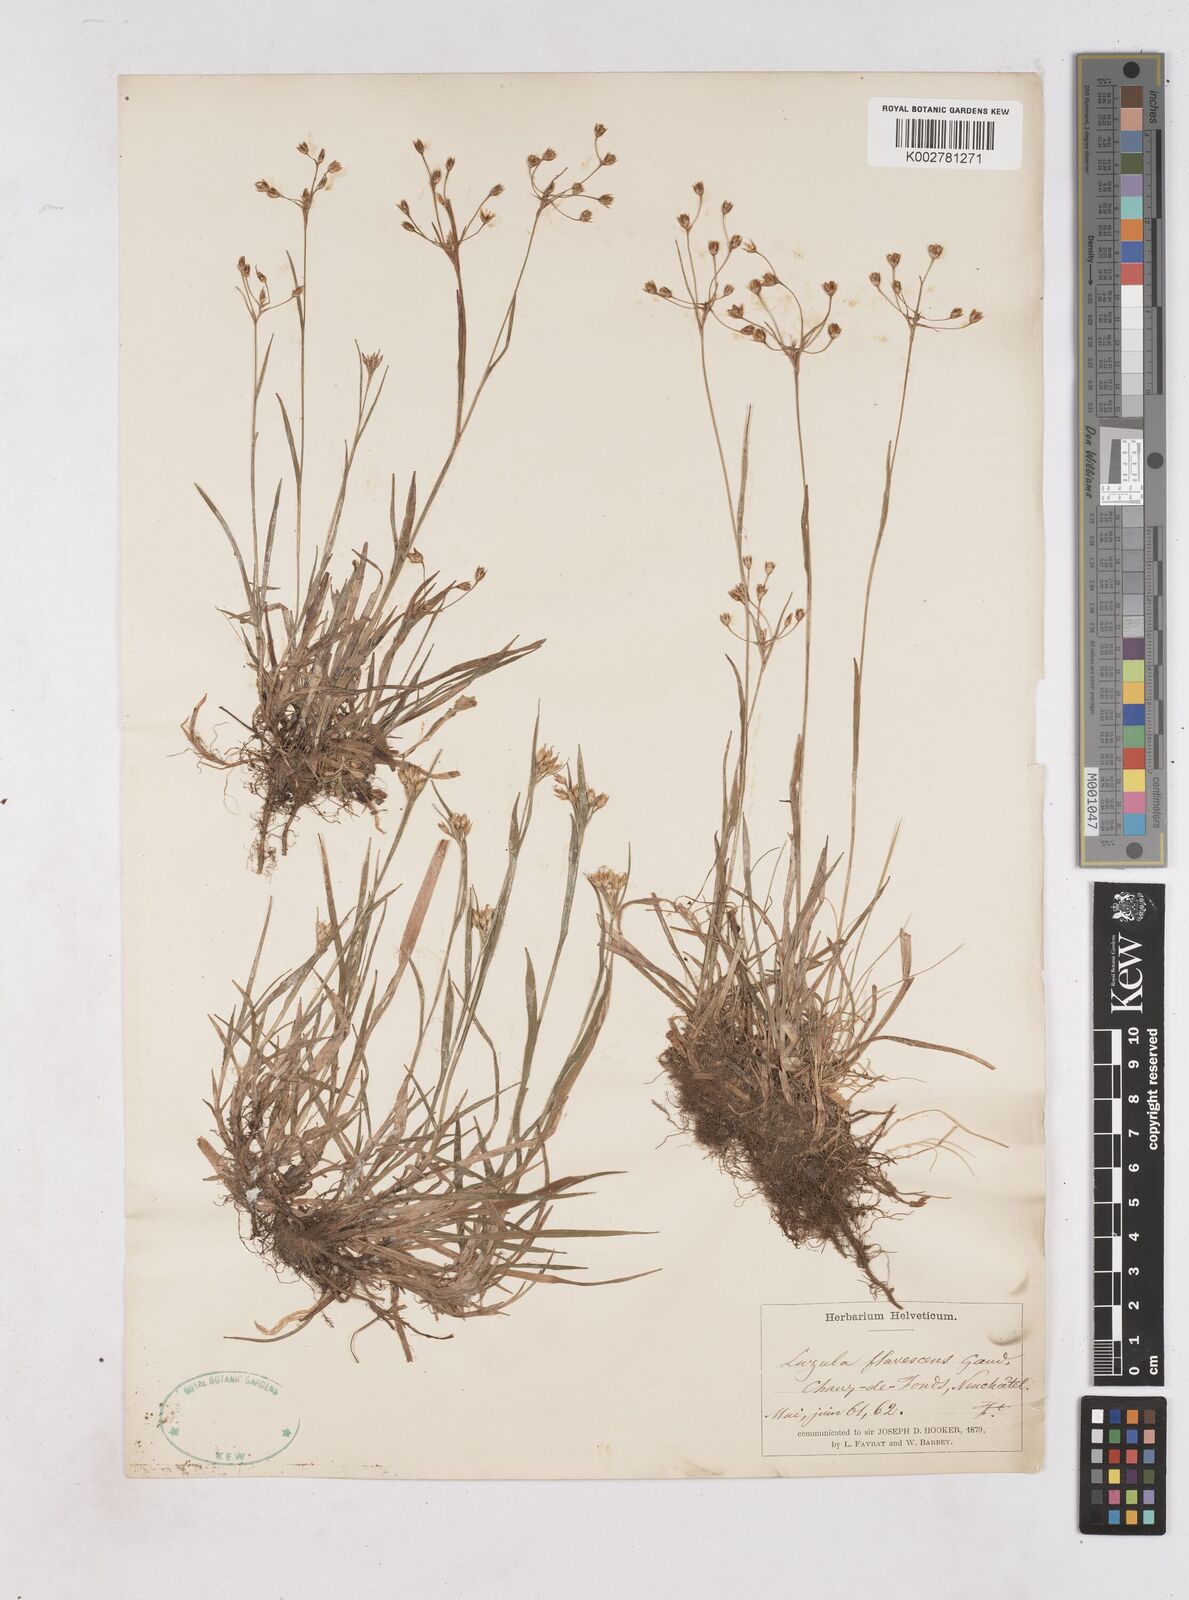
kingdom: Plantae
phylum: Tracheophyta
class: Liliopsida
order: Poales
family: Juncaceae
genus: Luzula
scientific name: Luzula luzulina
